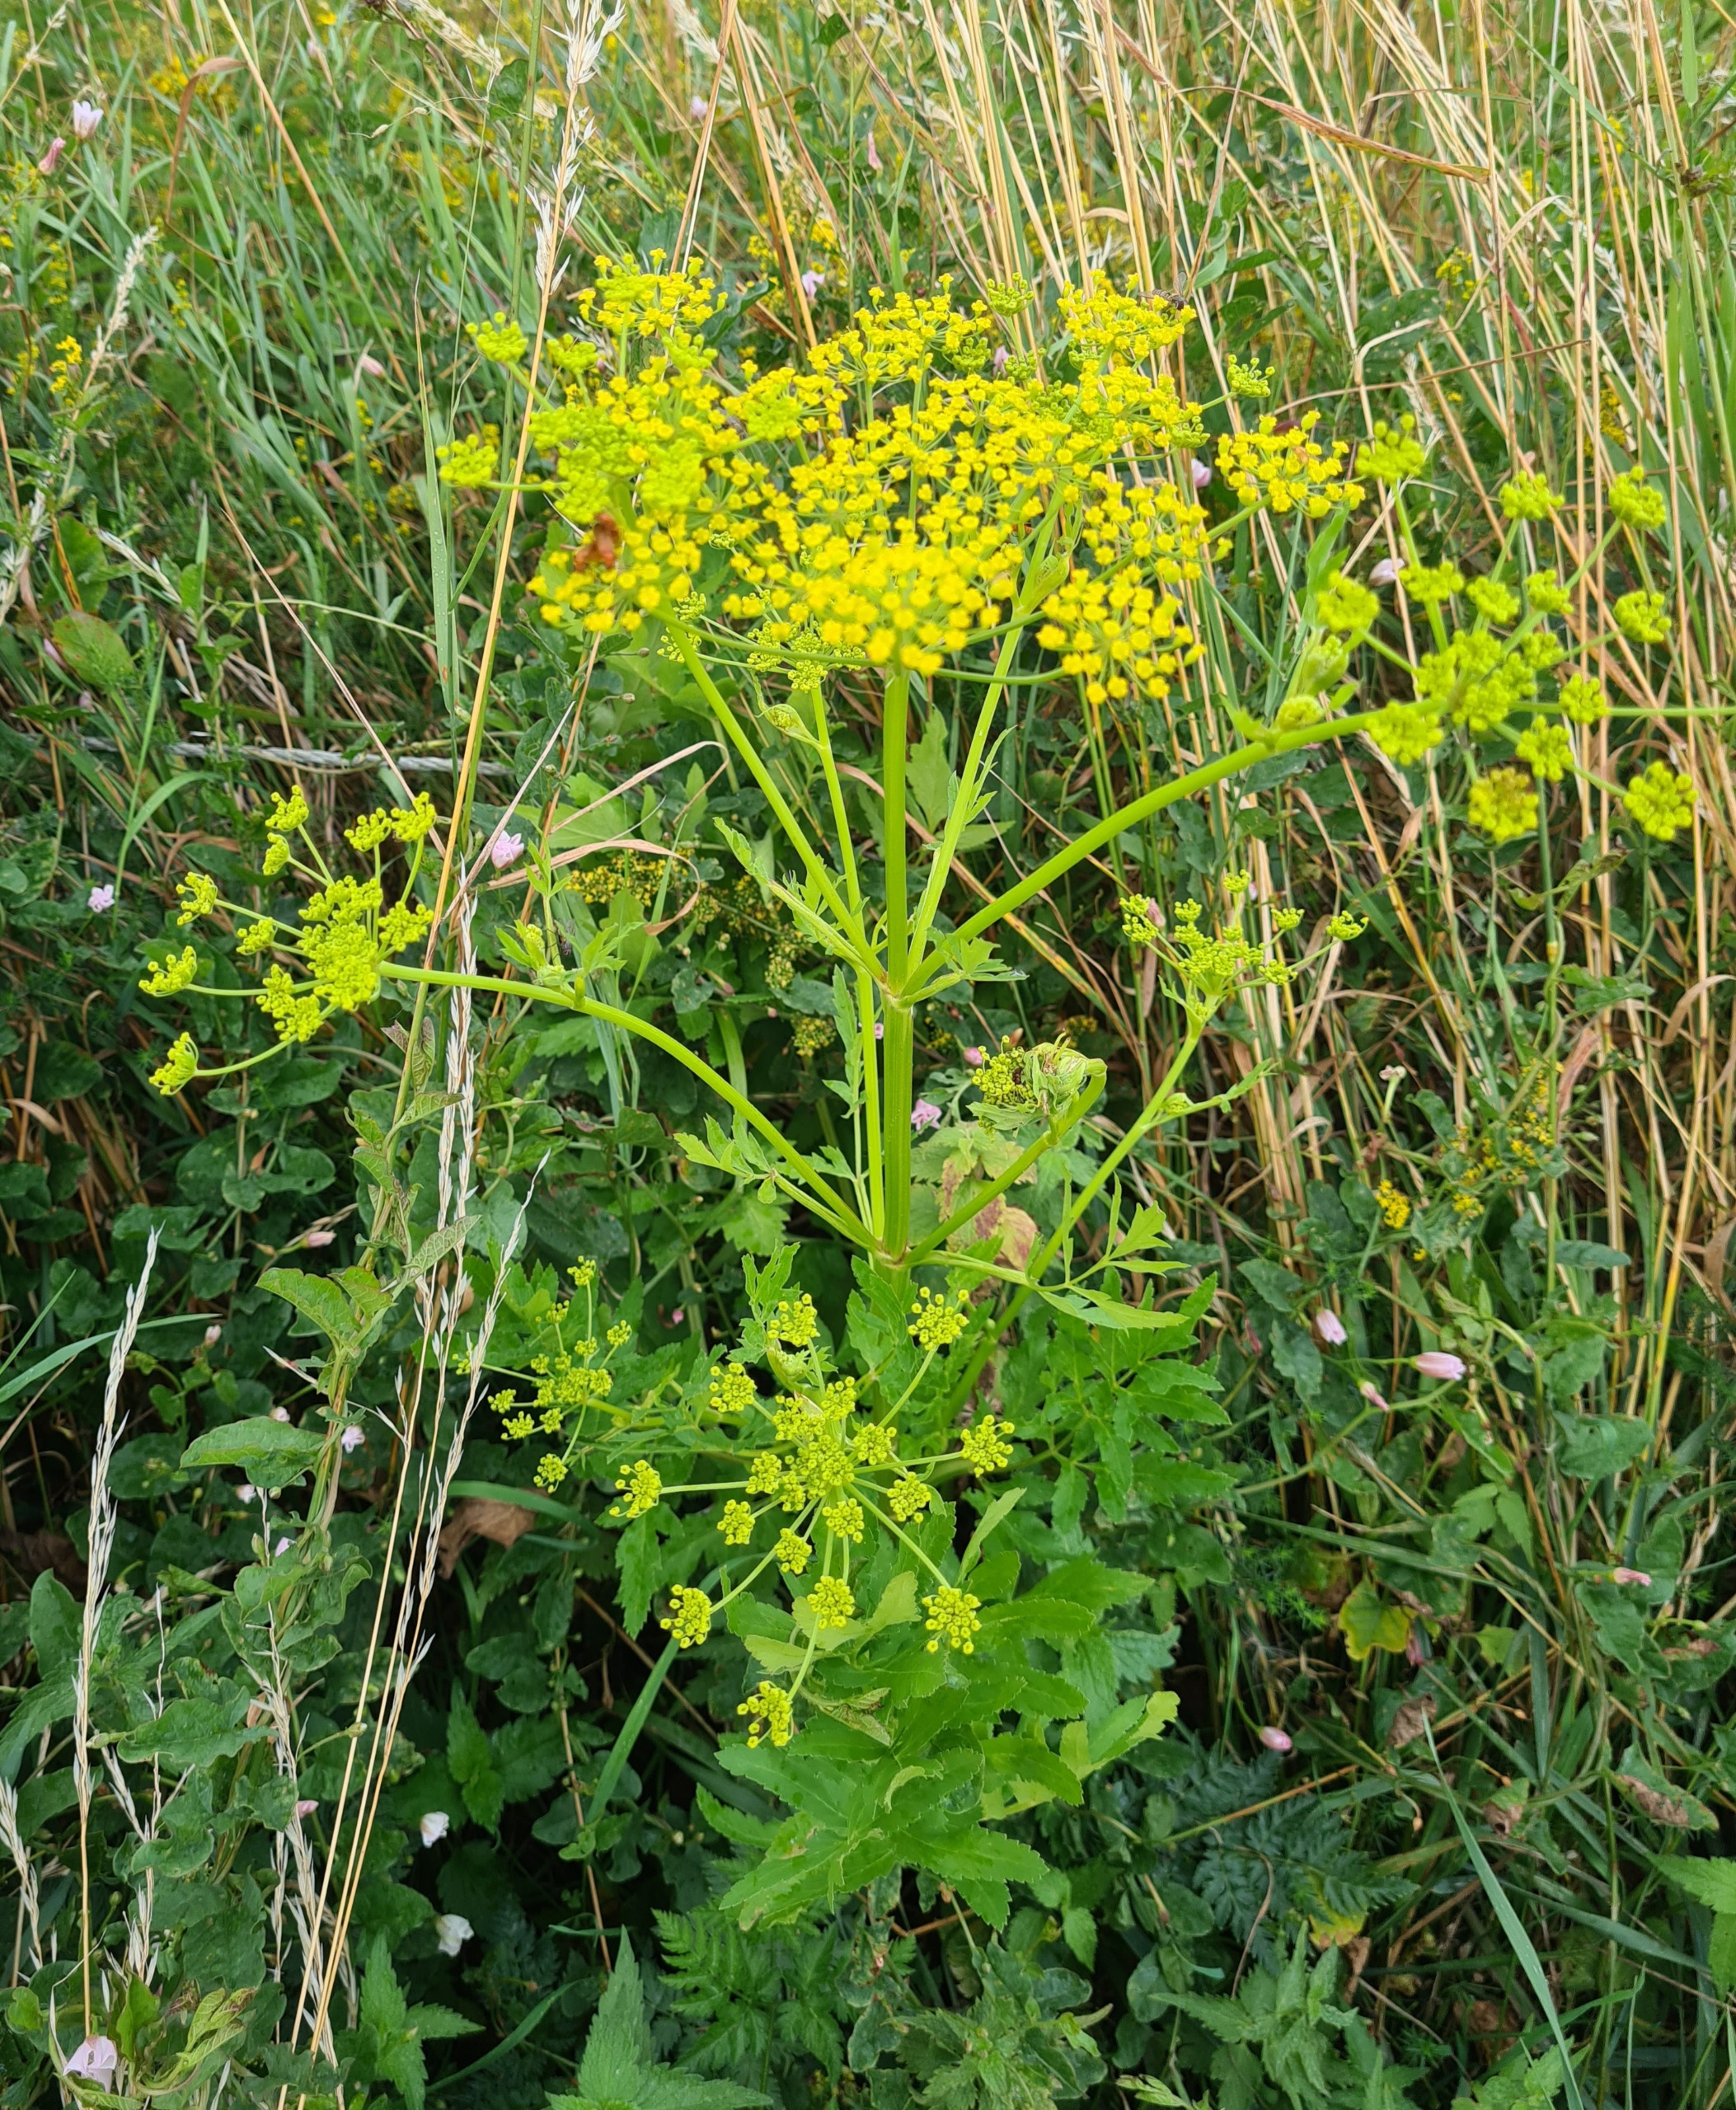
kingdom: Plantae
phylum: Tracheophyta
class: Magnoliopsida
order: Apiales
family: Apiaceae
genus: Pastinaca
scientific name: Pastinaca sativa
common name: Have-pastinak
